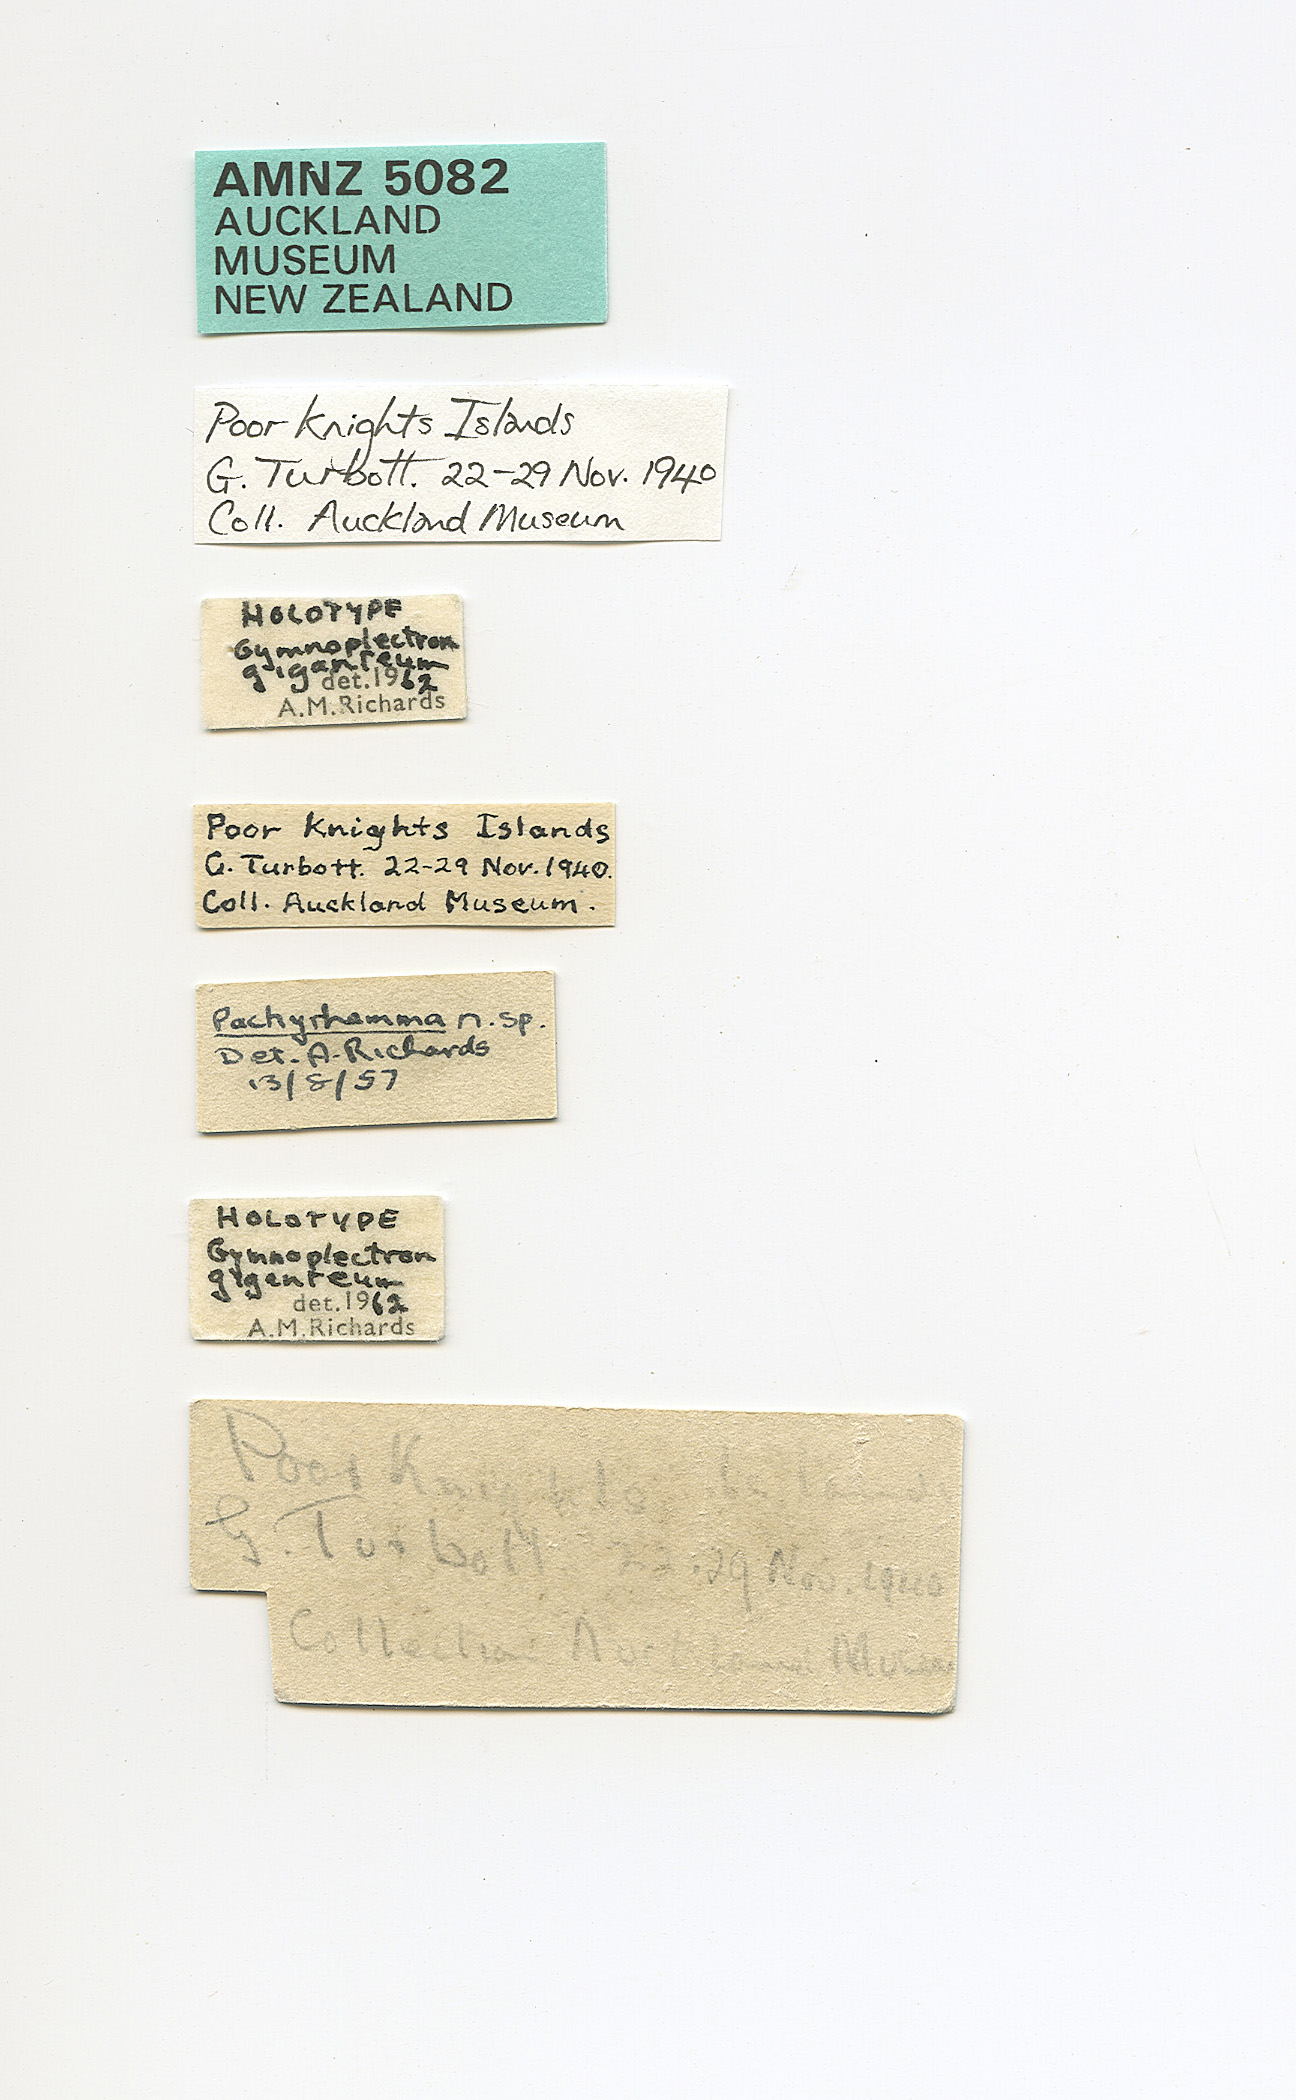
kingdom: Animalia
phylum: Arthropoda
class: Insecta
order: Orthoptera
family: Rhaphidophoridae
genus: Pachyrhamma
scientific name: Pachyrhamma giganteum
